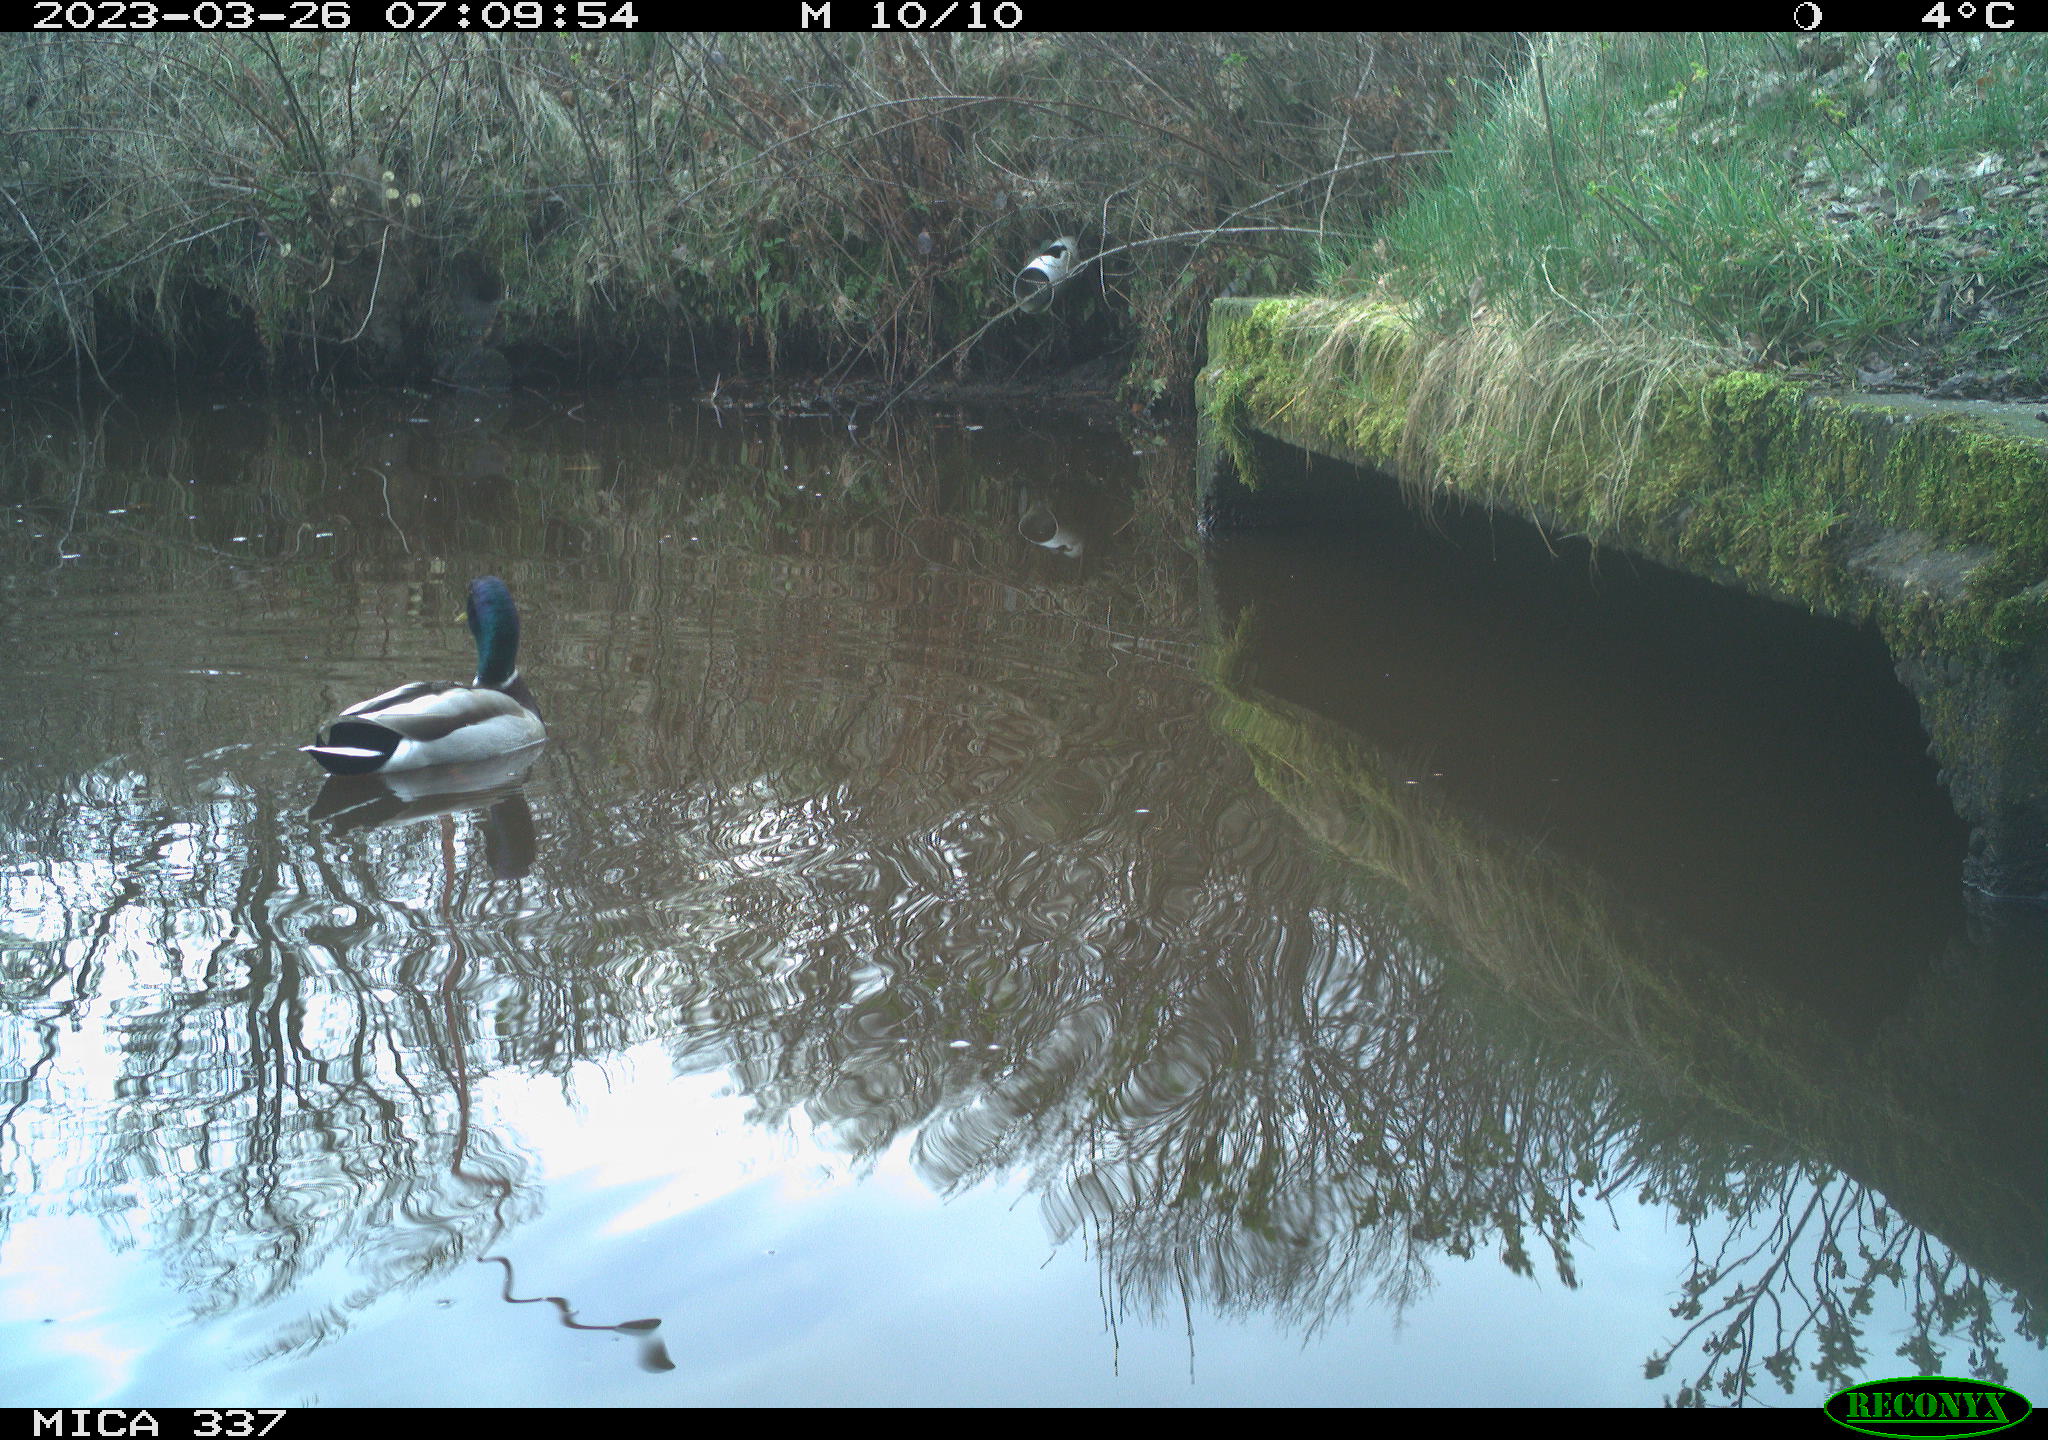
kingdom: Animalia
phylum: Chordata
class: Aves
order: Anseriformes
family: Anatidae
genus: Anas
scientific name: Anas
